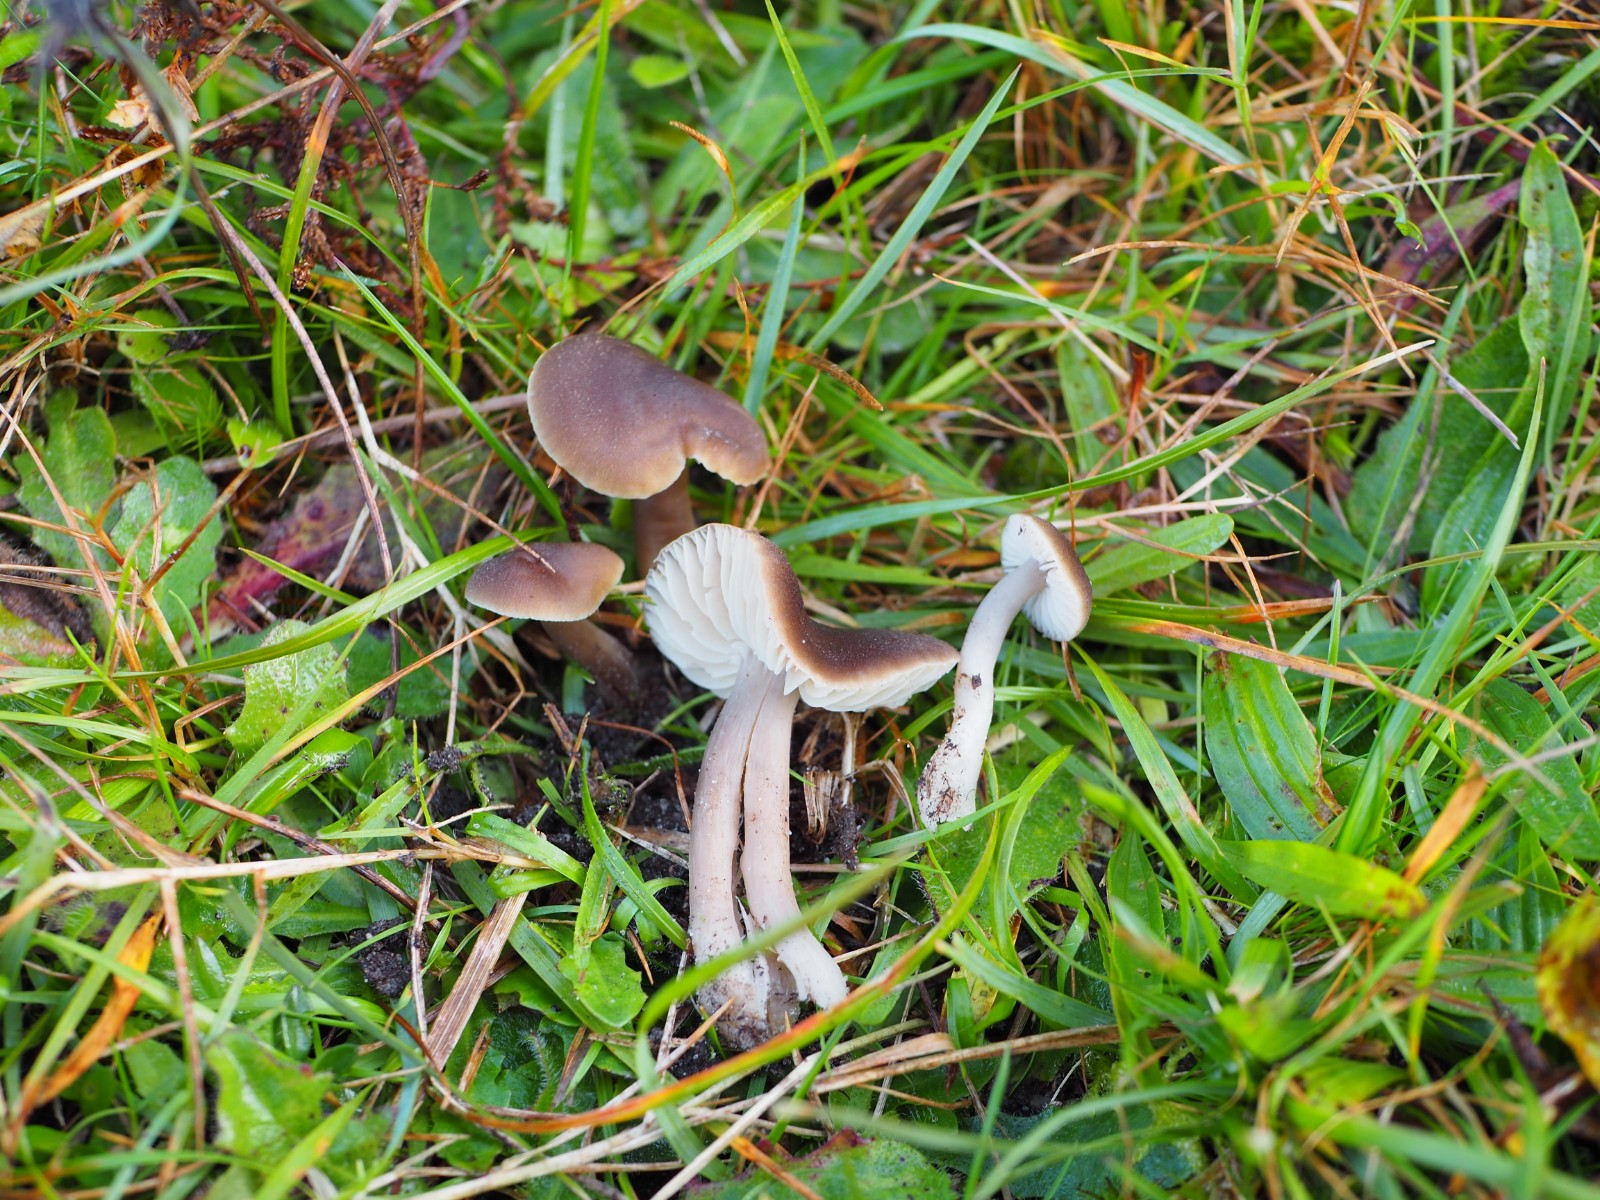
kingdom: Fungi
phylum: Basidiomycota
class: Agaricomycetes
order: Agaricales
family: Hygrophoraceae
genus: Neohygrocybe
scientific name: Neohygrocybe nitrata
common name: stinkende vokshat
